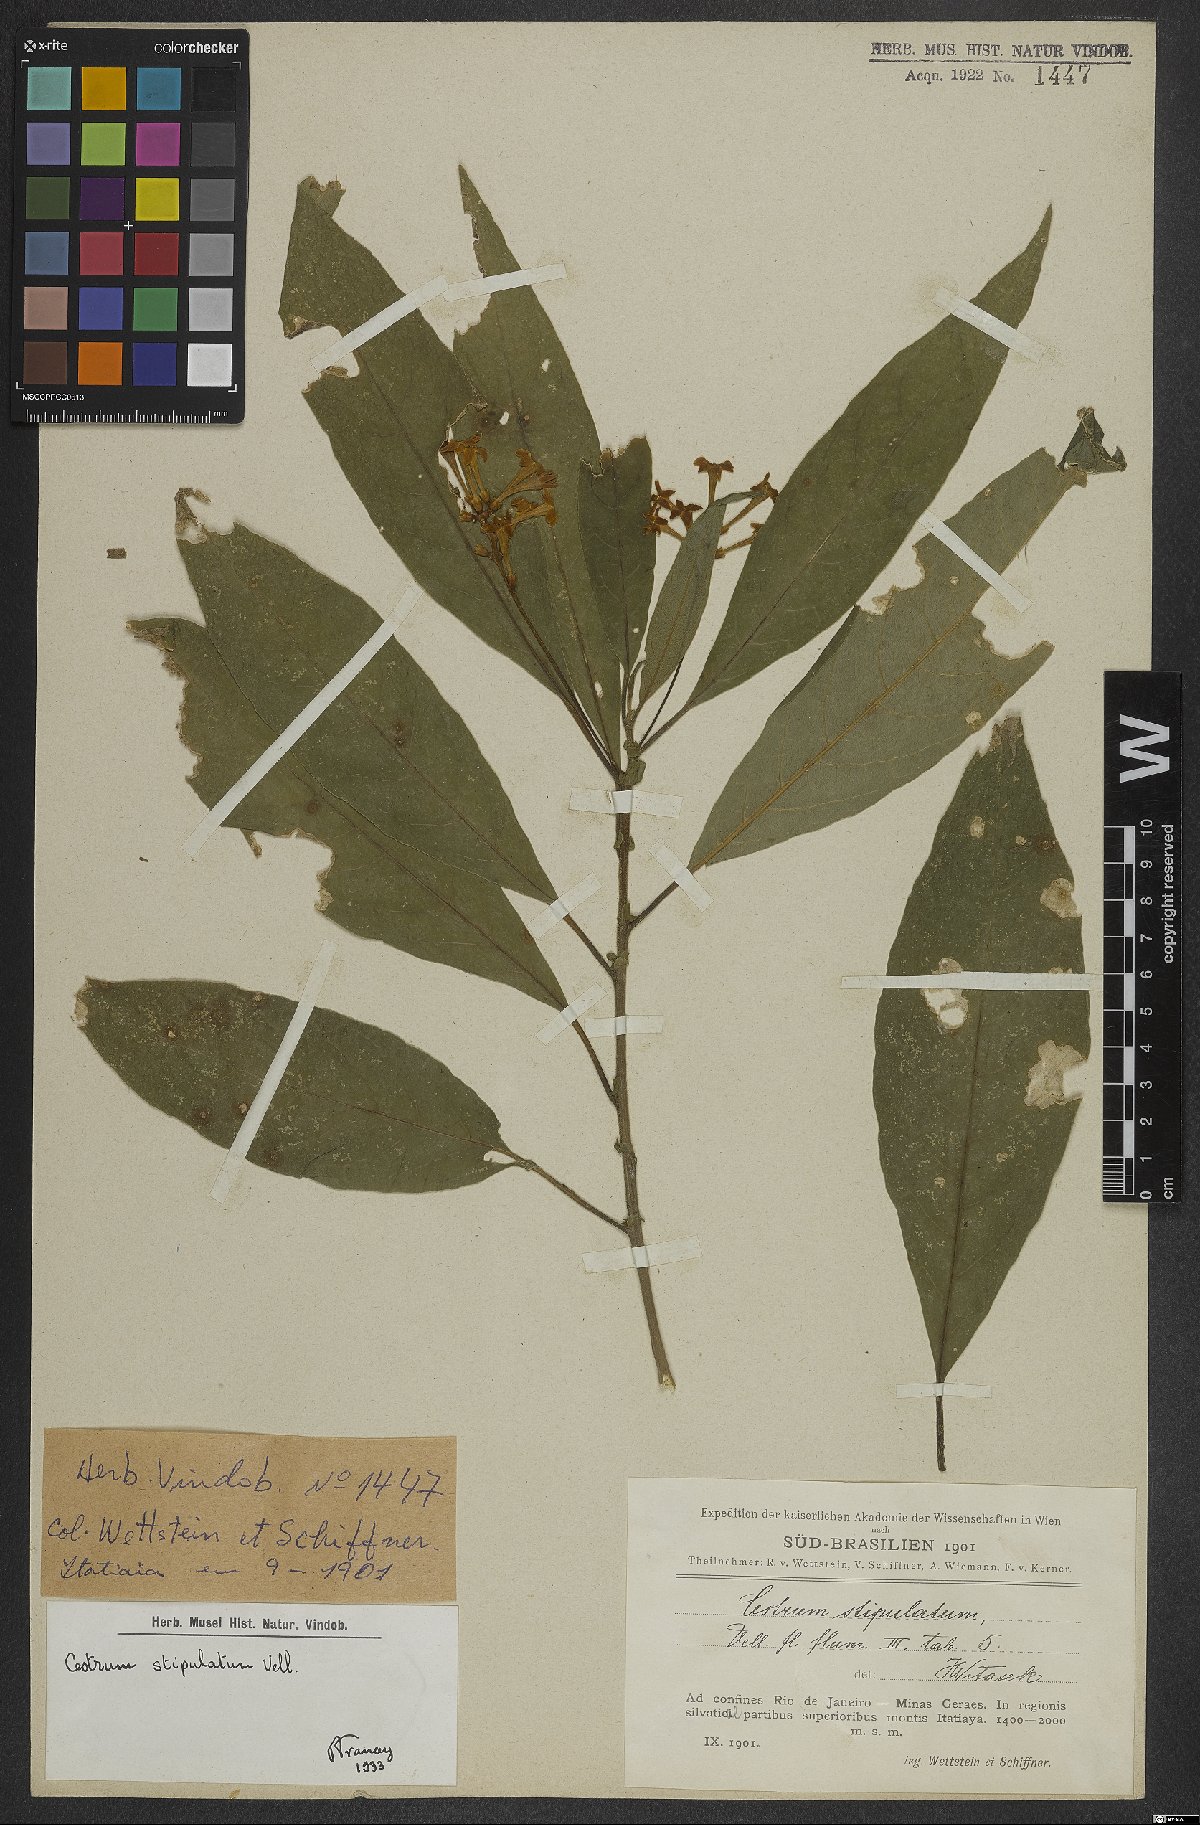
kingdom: Plantae
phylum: Tracheophyta
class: Magnoliopsida
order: Solanales
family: Solanaceae
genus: Cestrum
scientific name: Cestrum bracteatum
